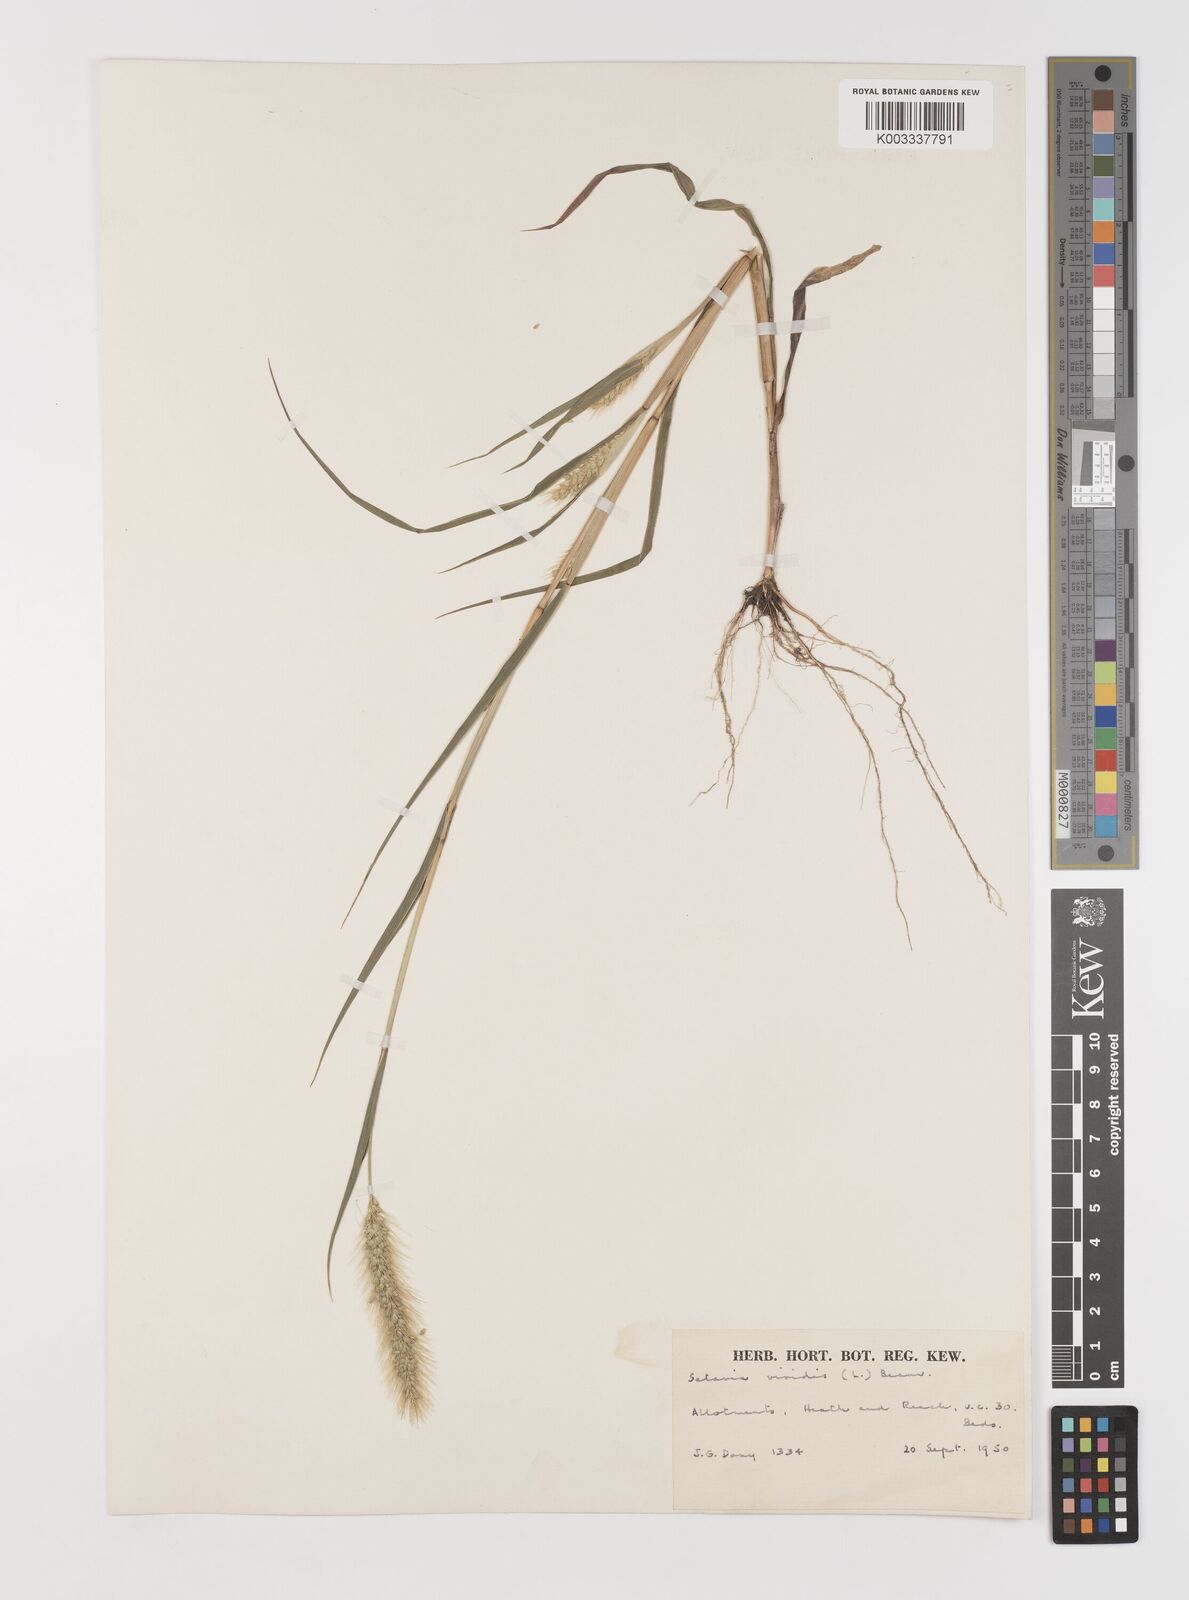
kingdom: Plantae
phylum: Tracheophyta
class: Liliopsida
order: Poales
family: Poaceae
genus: Setaria
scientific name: Setaria viridis
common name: Green bristlegrass
